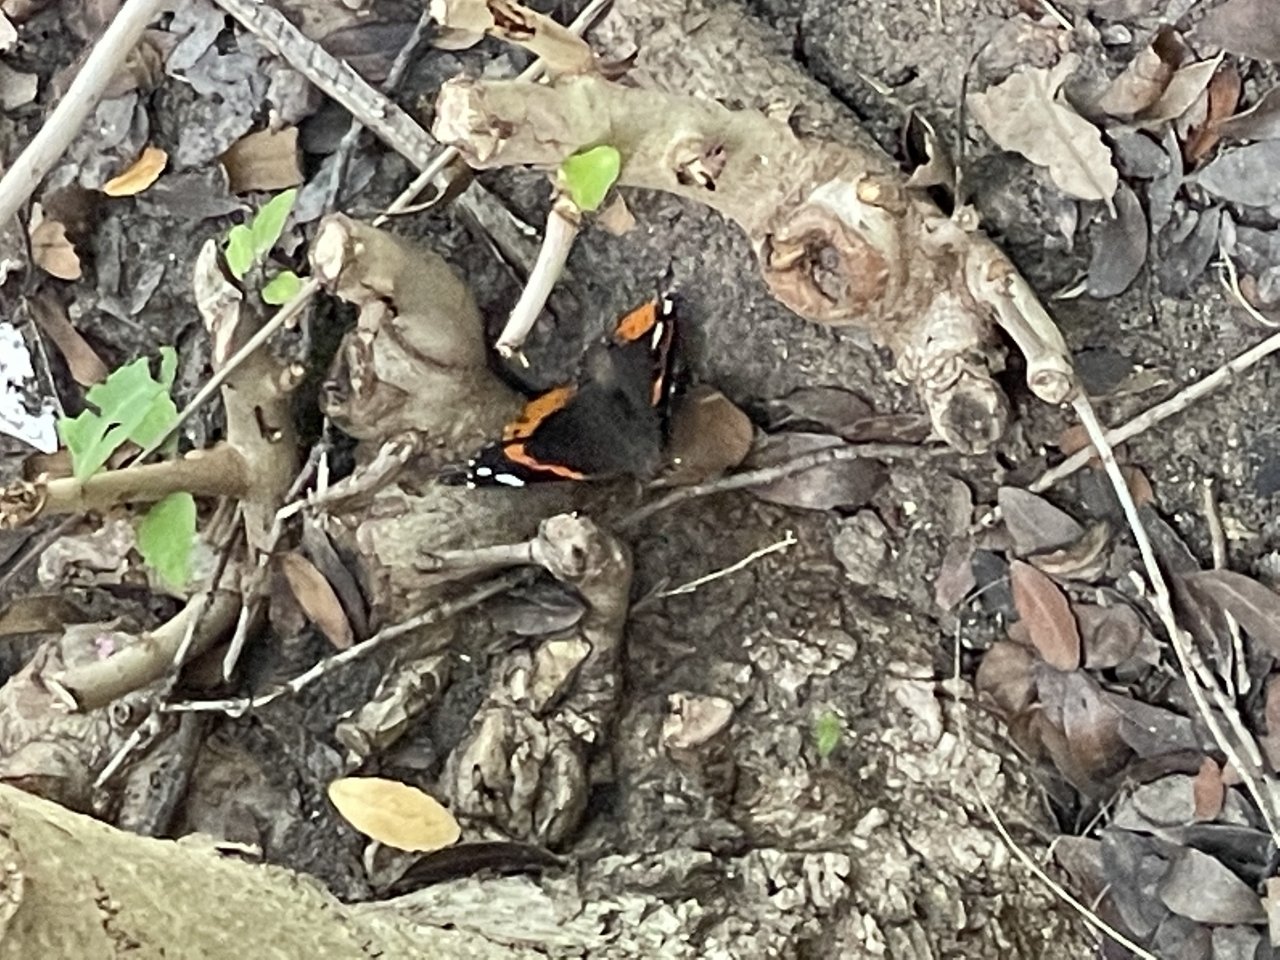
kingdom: Animalia
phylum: Arthropoda
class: Insecta
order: Lepidoptera
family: Nymphalidae
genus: Vanessa
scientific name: Vanessa atalanta
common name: Red Admiral
